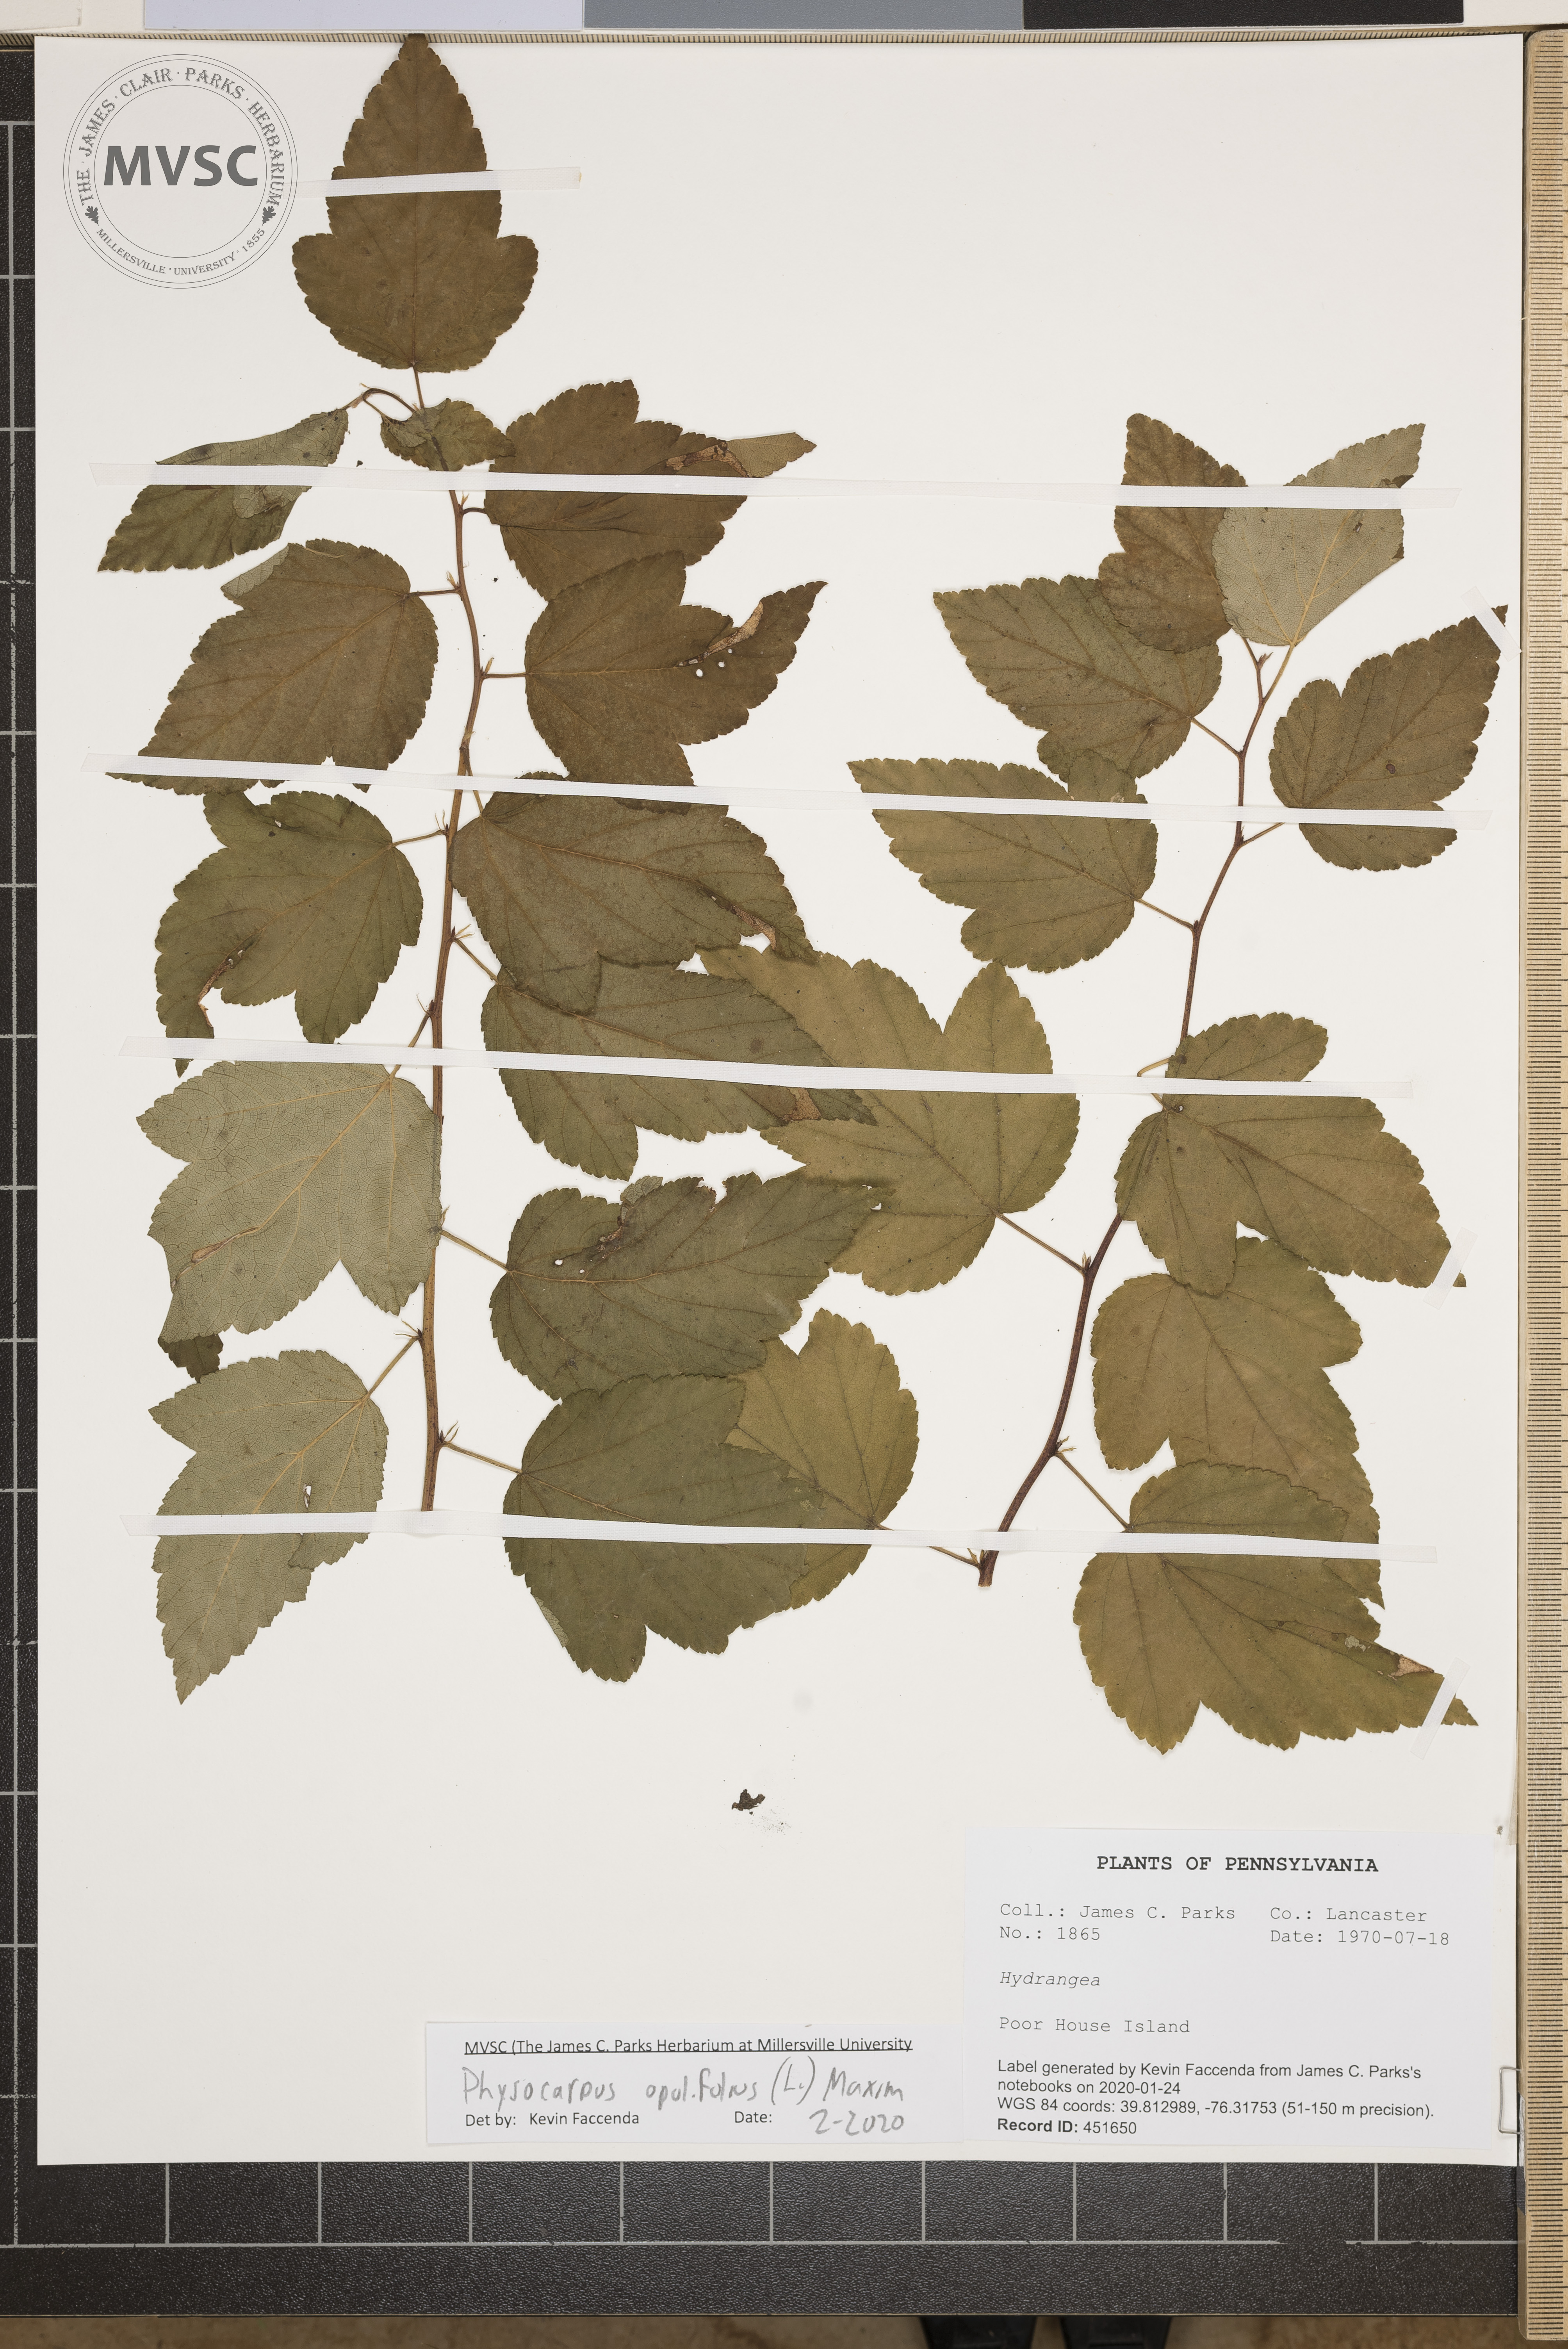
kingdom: Plantae
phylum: Tracheophyta
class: Magnoliopsida
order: Rosales
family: Rosaceae
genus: Physocarpus
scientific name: Physocarpus opulifolius
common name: Ninebark
